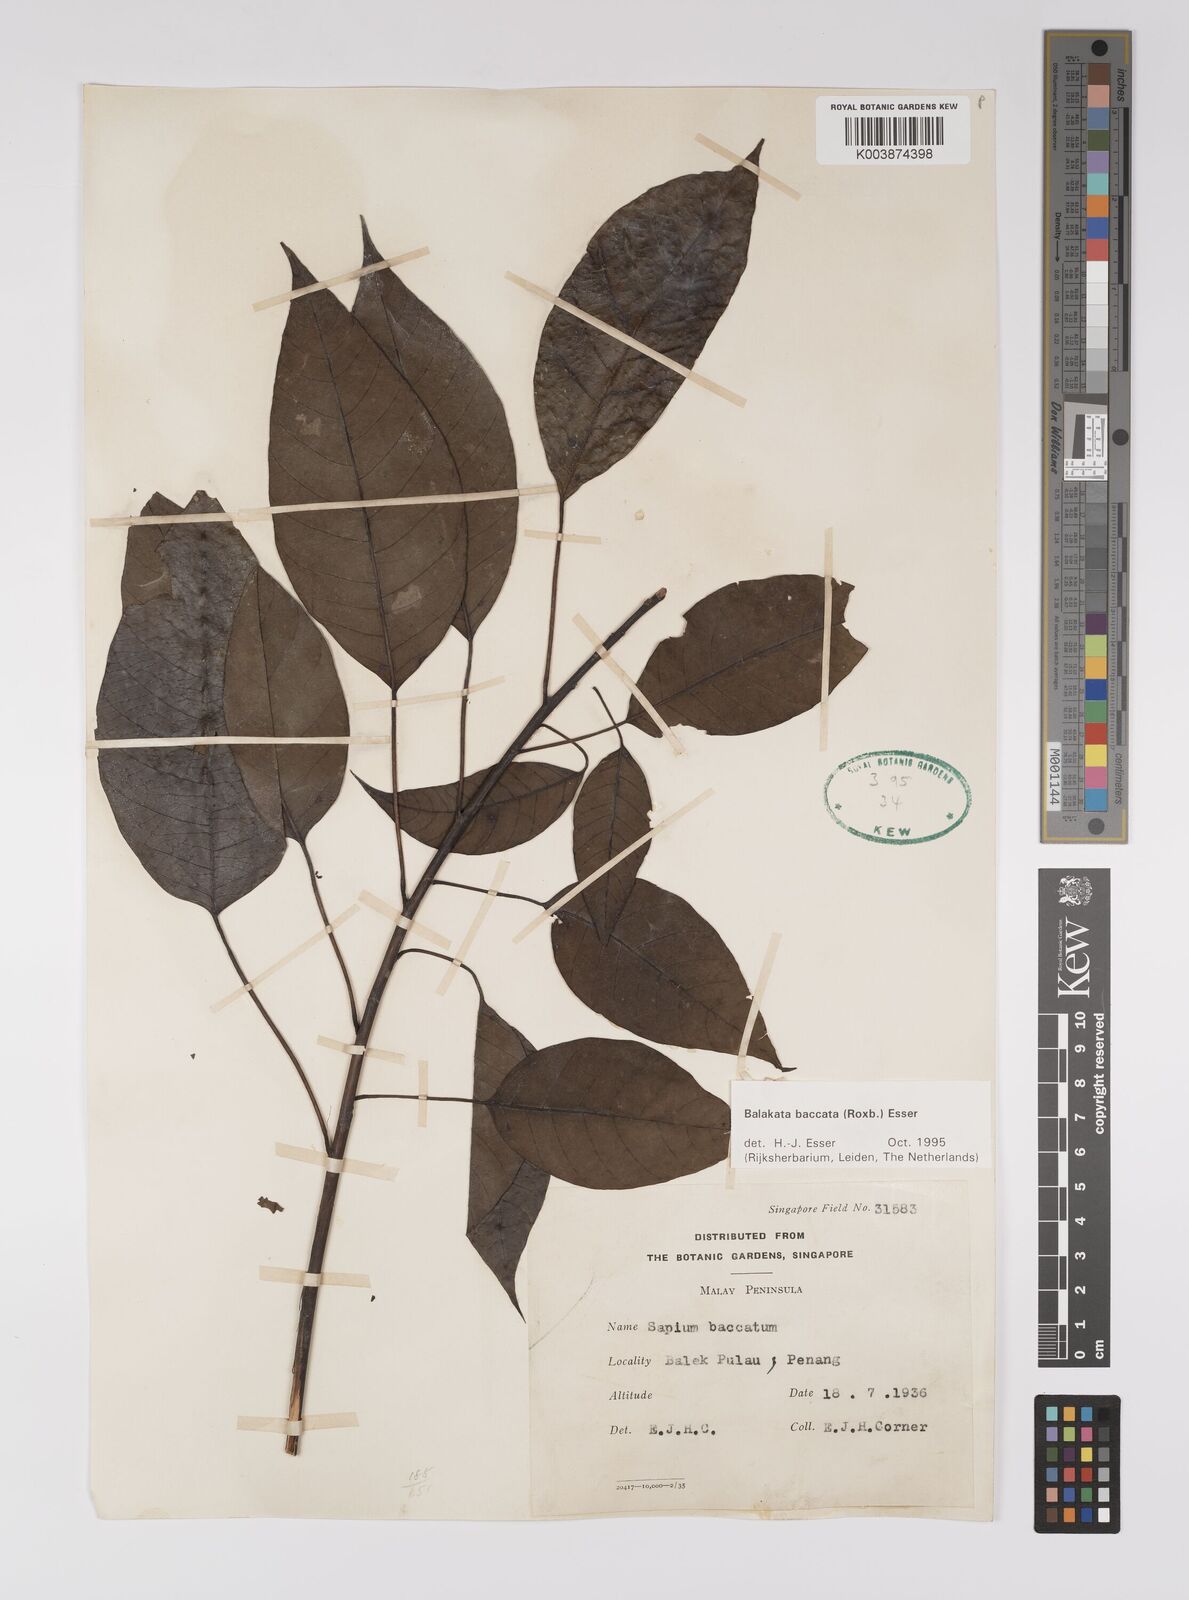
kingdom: Plantae
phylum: Tracheophyta
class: Magnoliopsida
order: Malpighiales
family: Euphorbiaceae
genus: Balakata
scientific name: Balakata baccata
